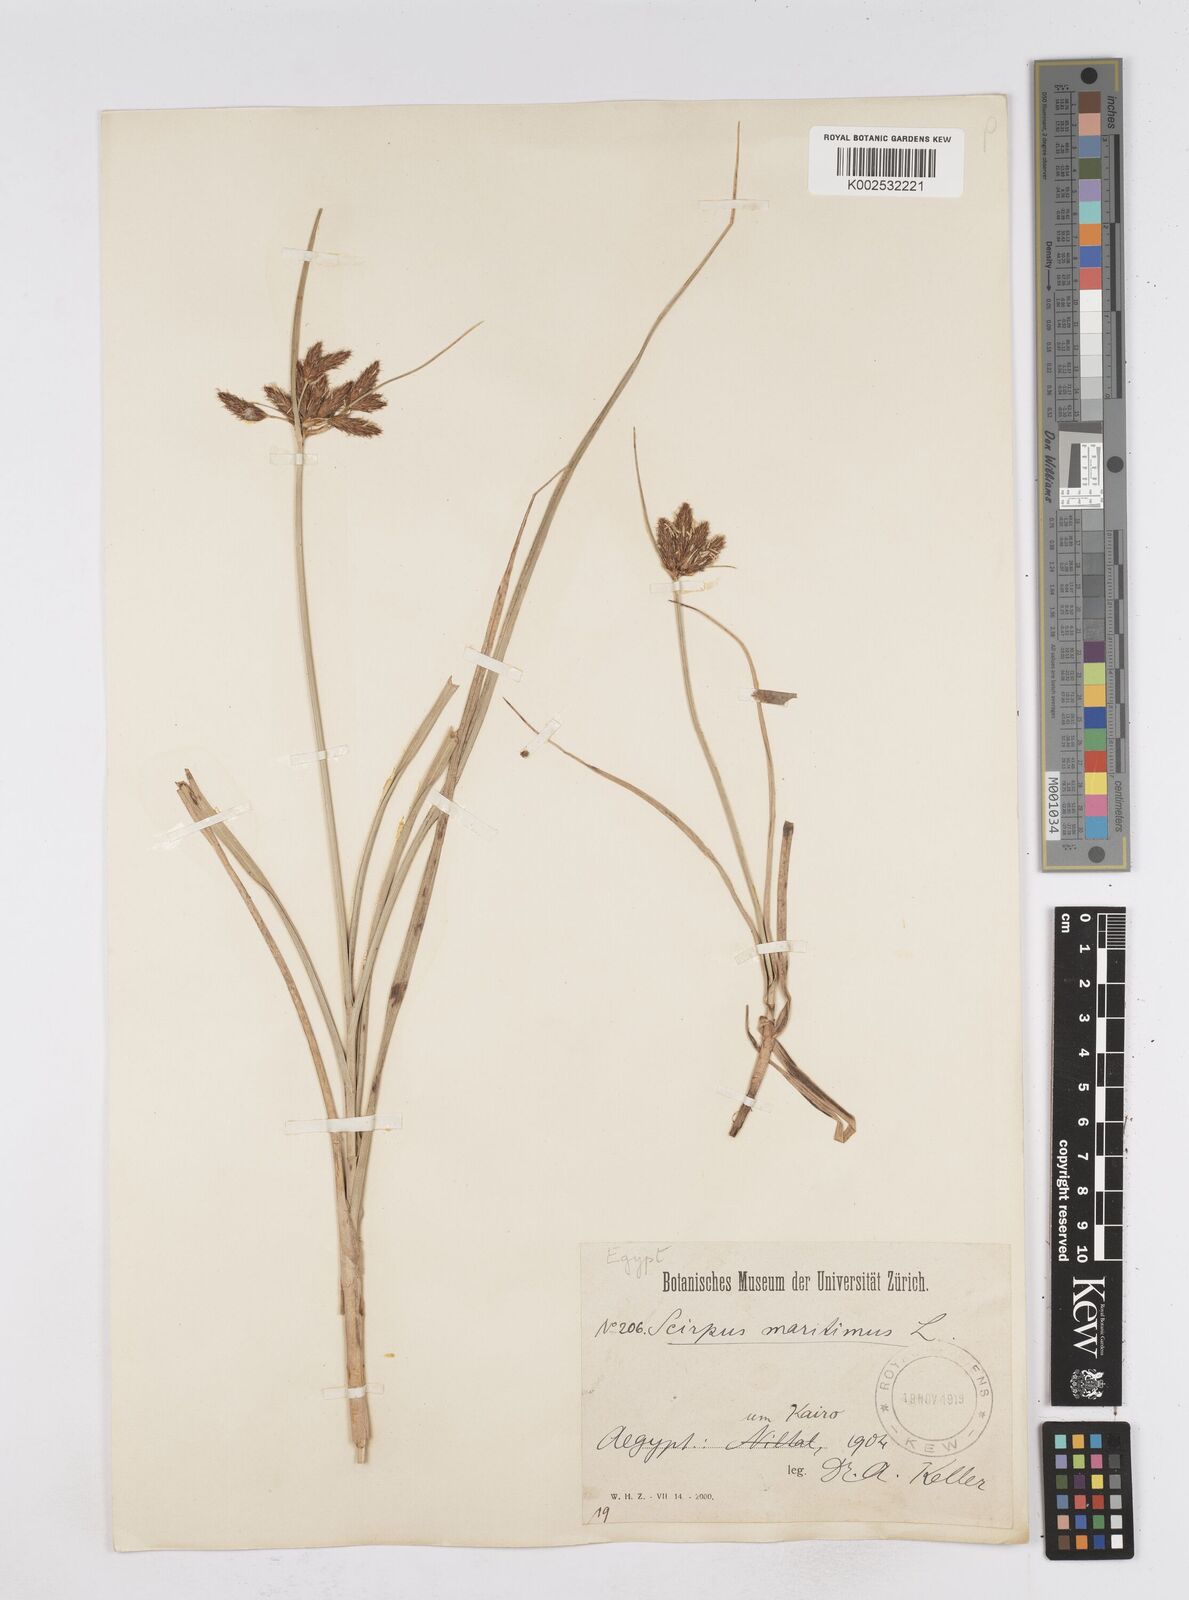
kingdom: Plantae
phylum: Tracheophyta
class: Liliopsida
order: Poales
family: Cyperaceae
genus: Bolboschoenus
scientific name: Bolboschoenus maritimus
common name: Sea club-rush
